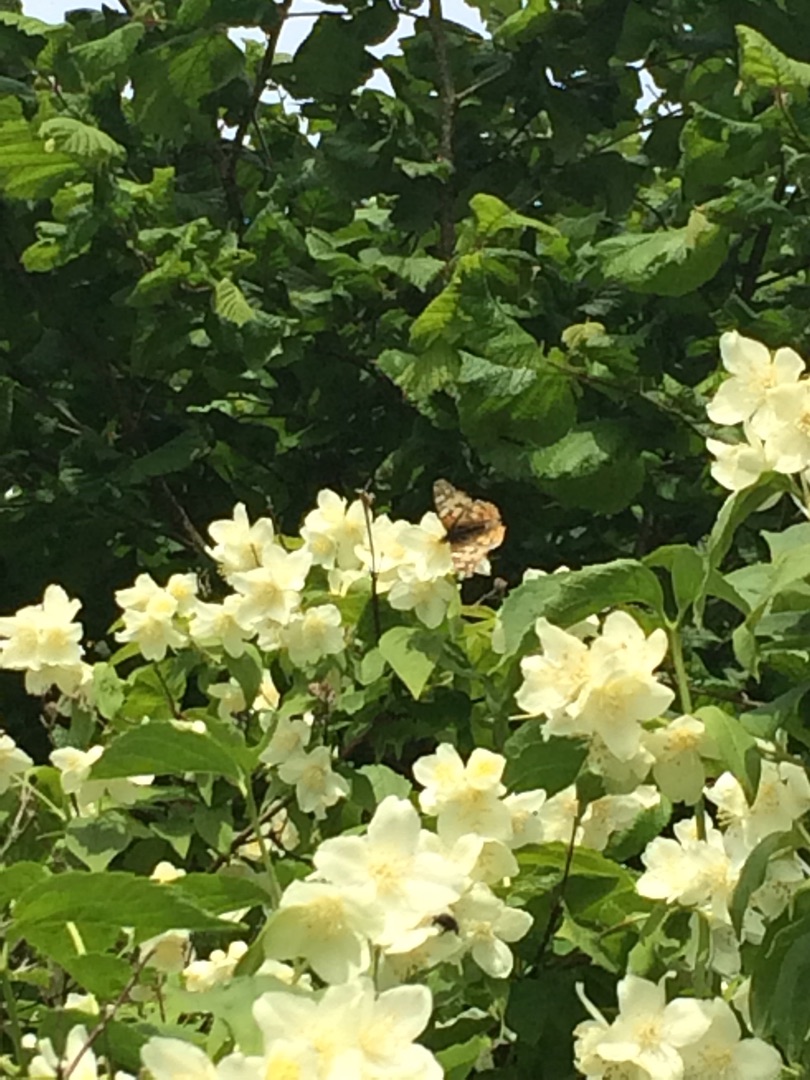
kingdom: Animalia
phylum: Arthropoda
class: Insecta
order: Lepidoptera
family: Nymphalidae
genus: Vanessa
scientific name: Vanessa cardui
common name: Tidselsommerfugl
